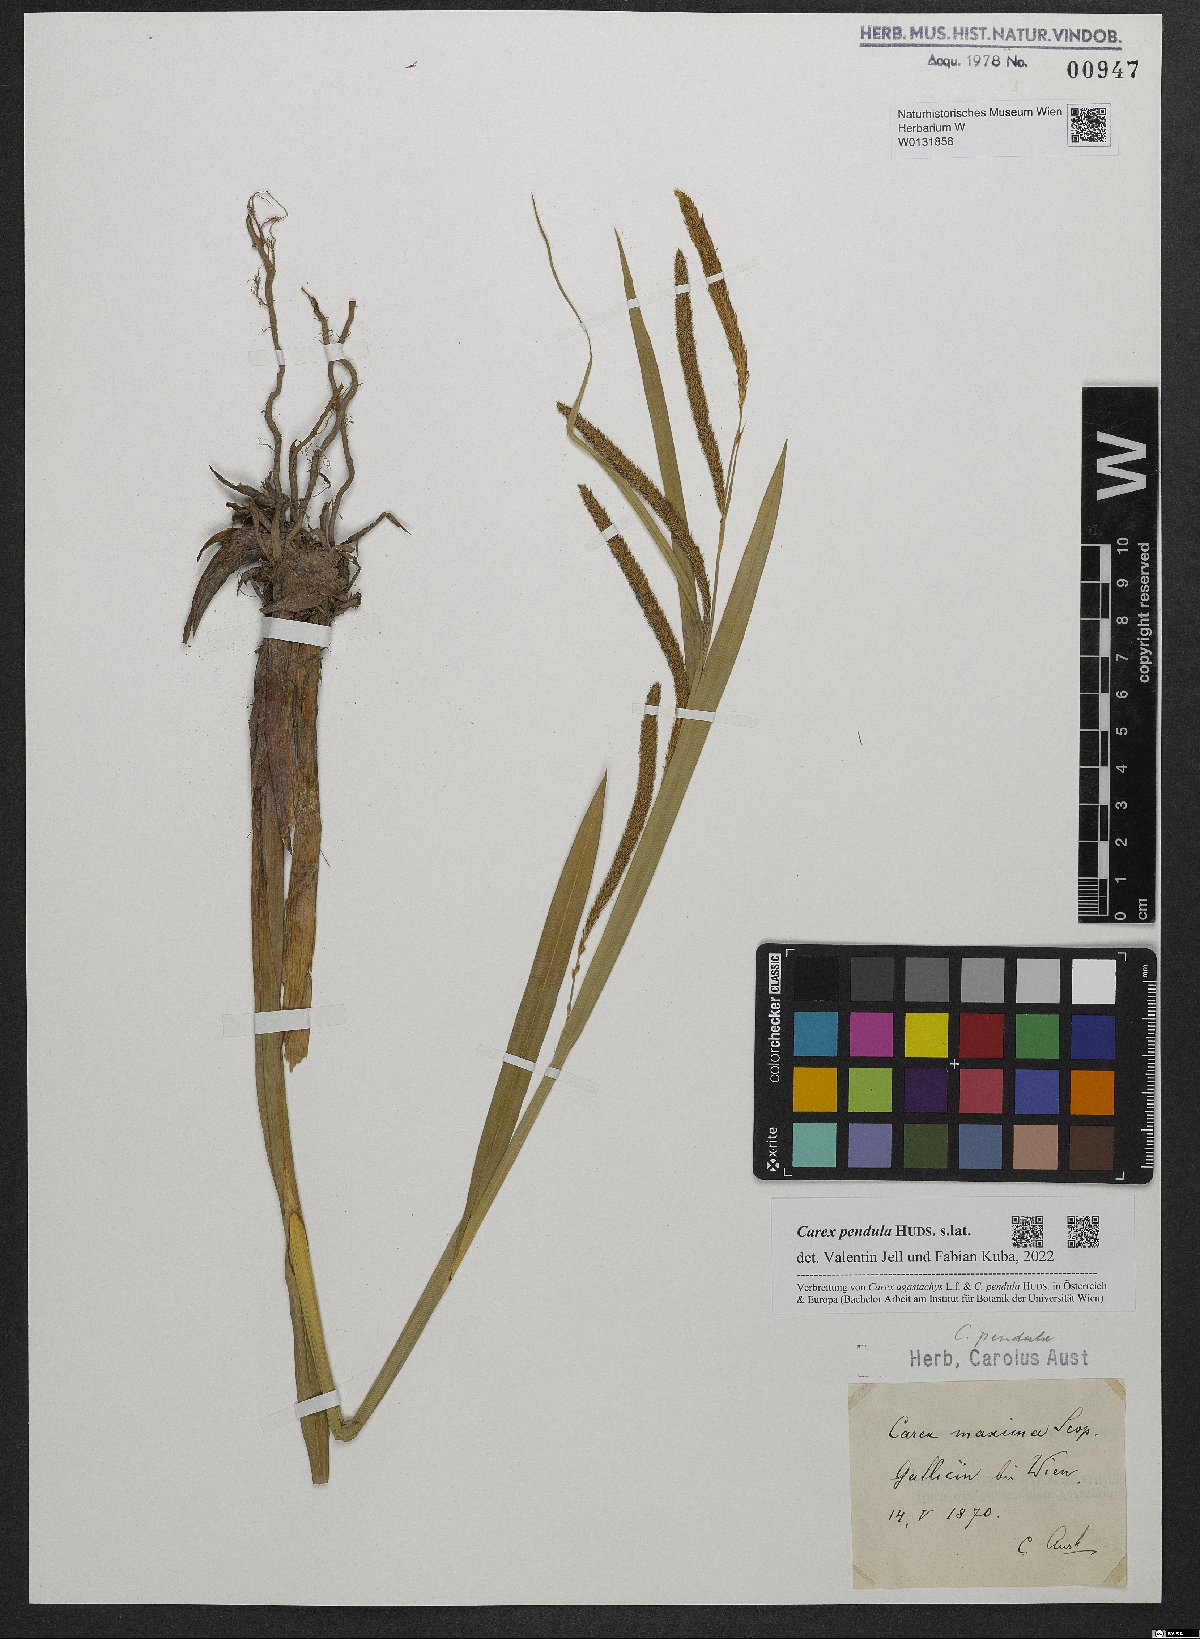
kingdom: Plantae
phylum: Tracheophyta
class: Liliopsida
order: Poales
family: Cyperaceae
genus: Carex
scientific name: Carex pendula
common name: Pendulous sedge
